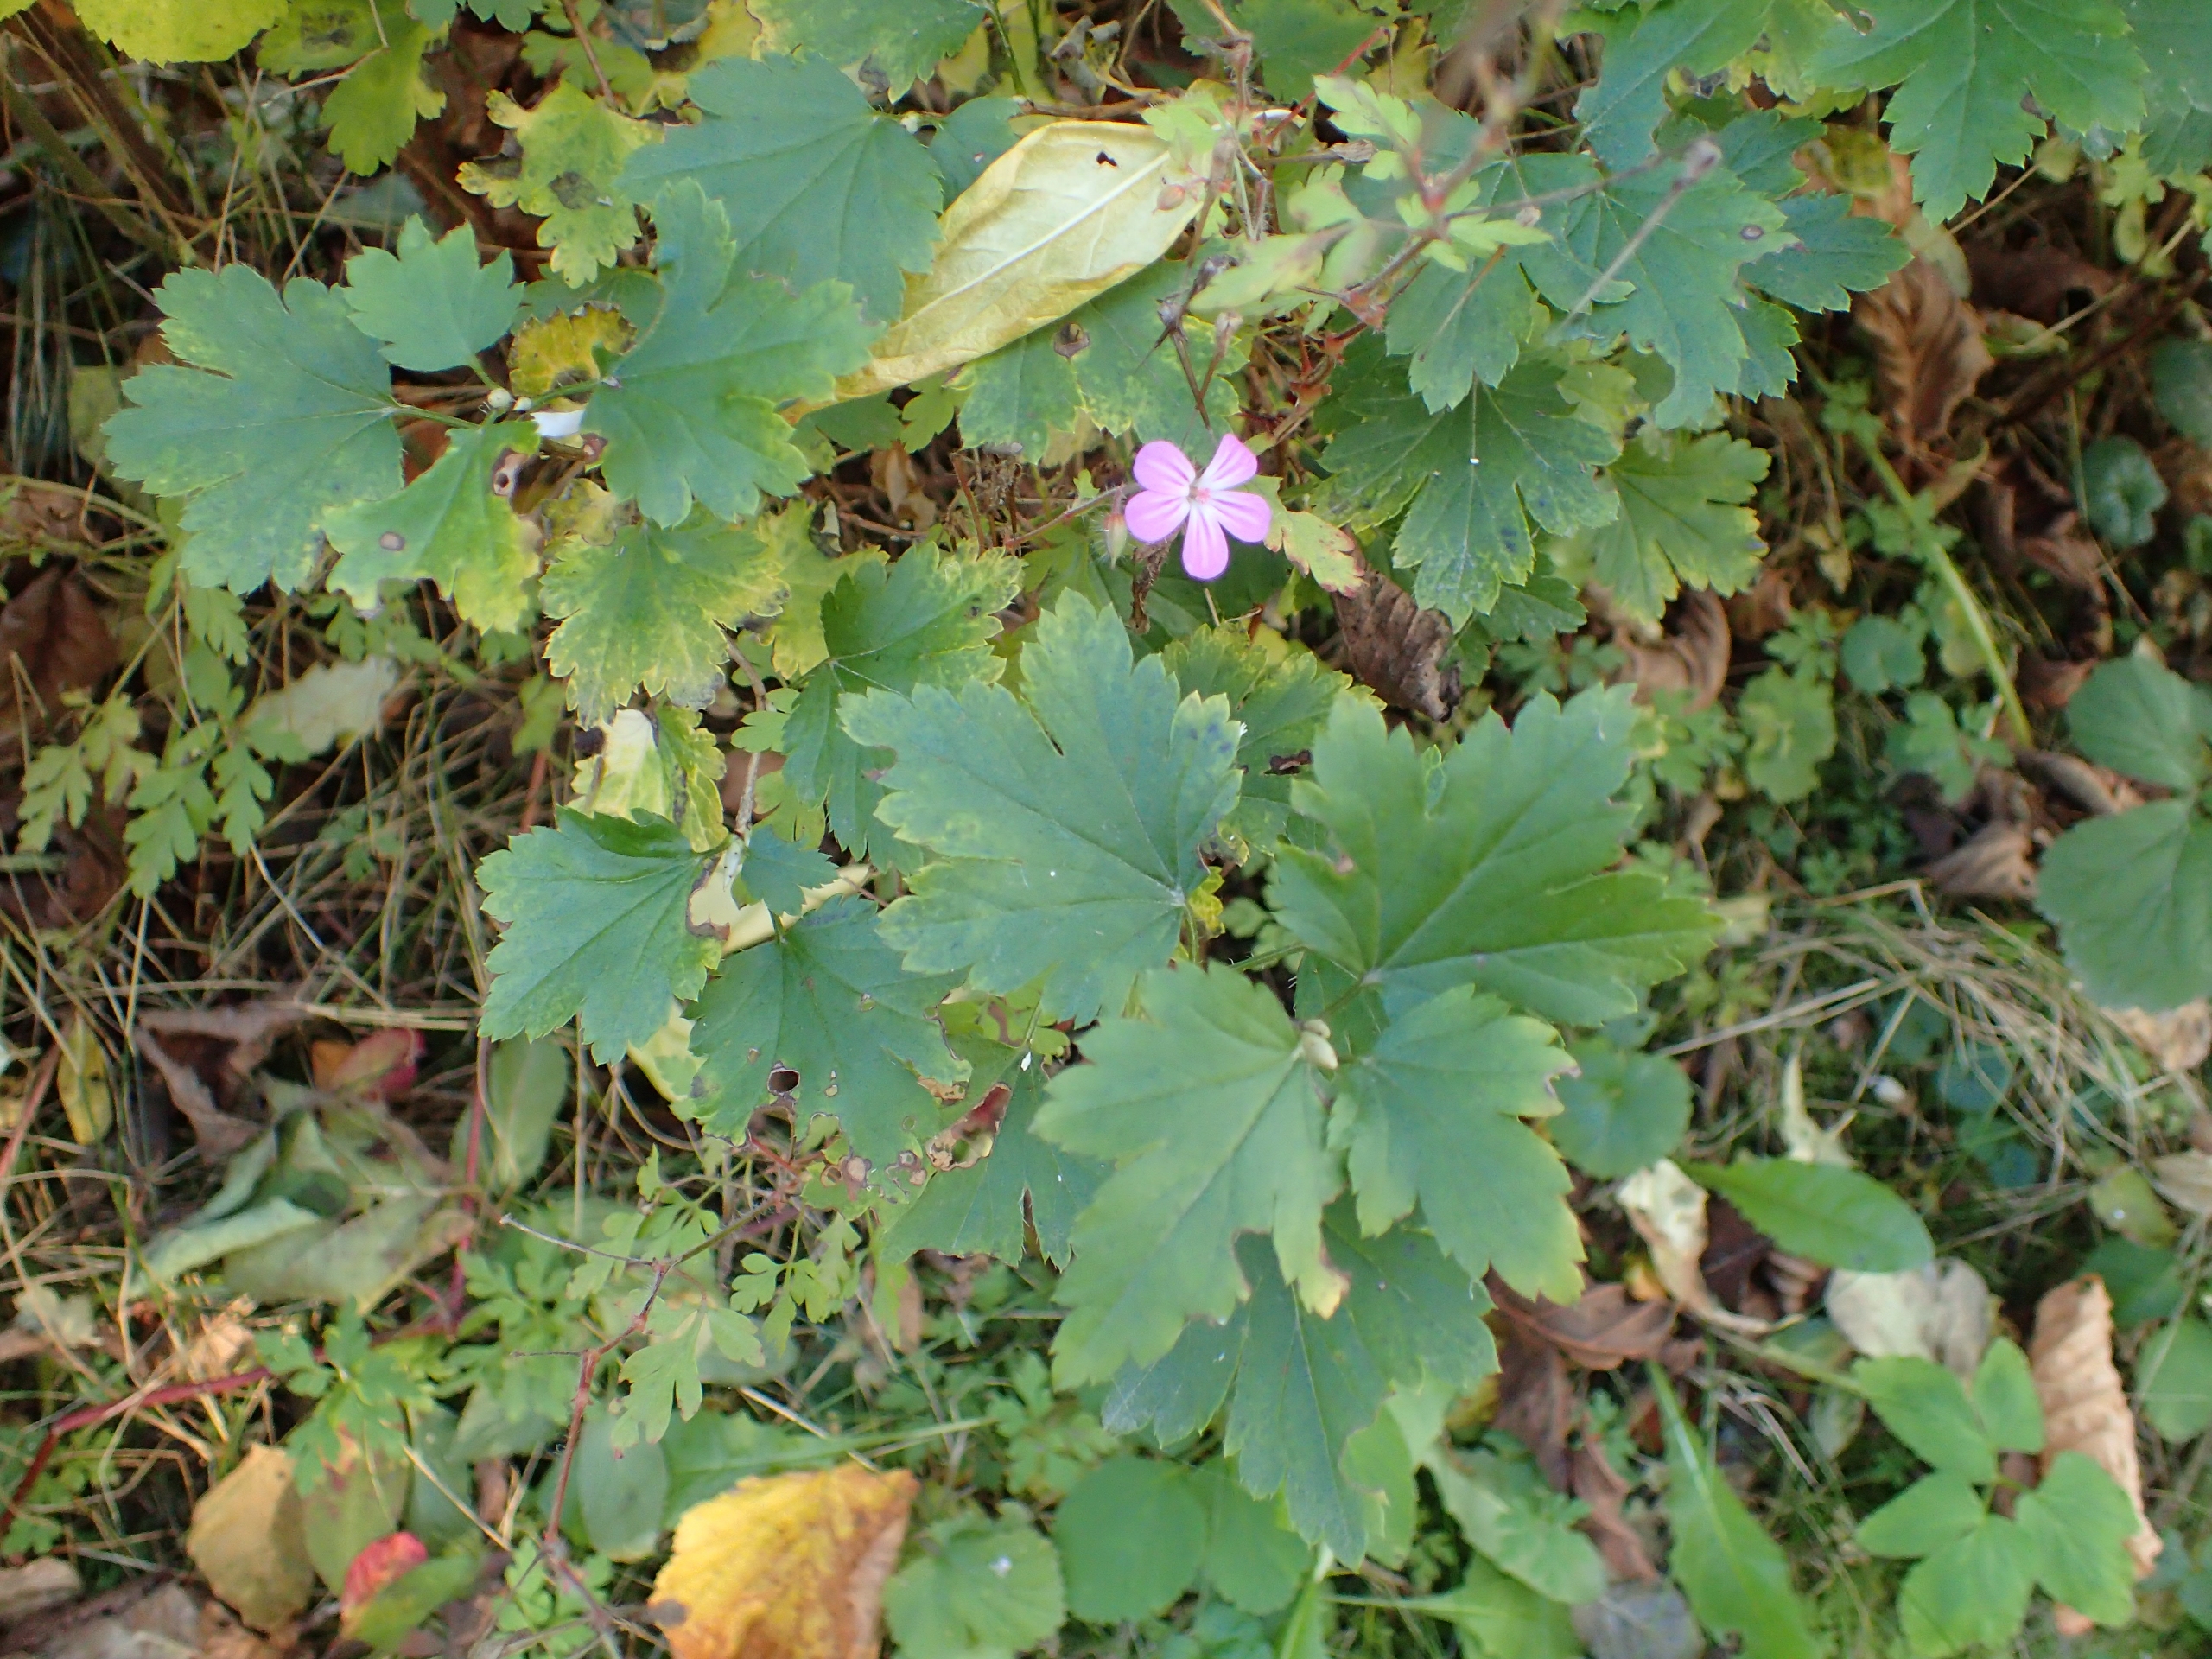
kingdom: Plantae
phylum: Tracheophyta
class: Magnoliopsida
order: Geraniales
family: Geraniaceae
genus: Geranium
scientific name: Geranium robertianum
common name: Stinkende storkenæb
